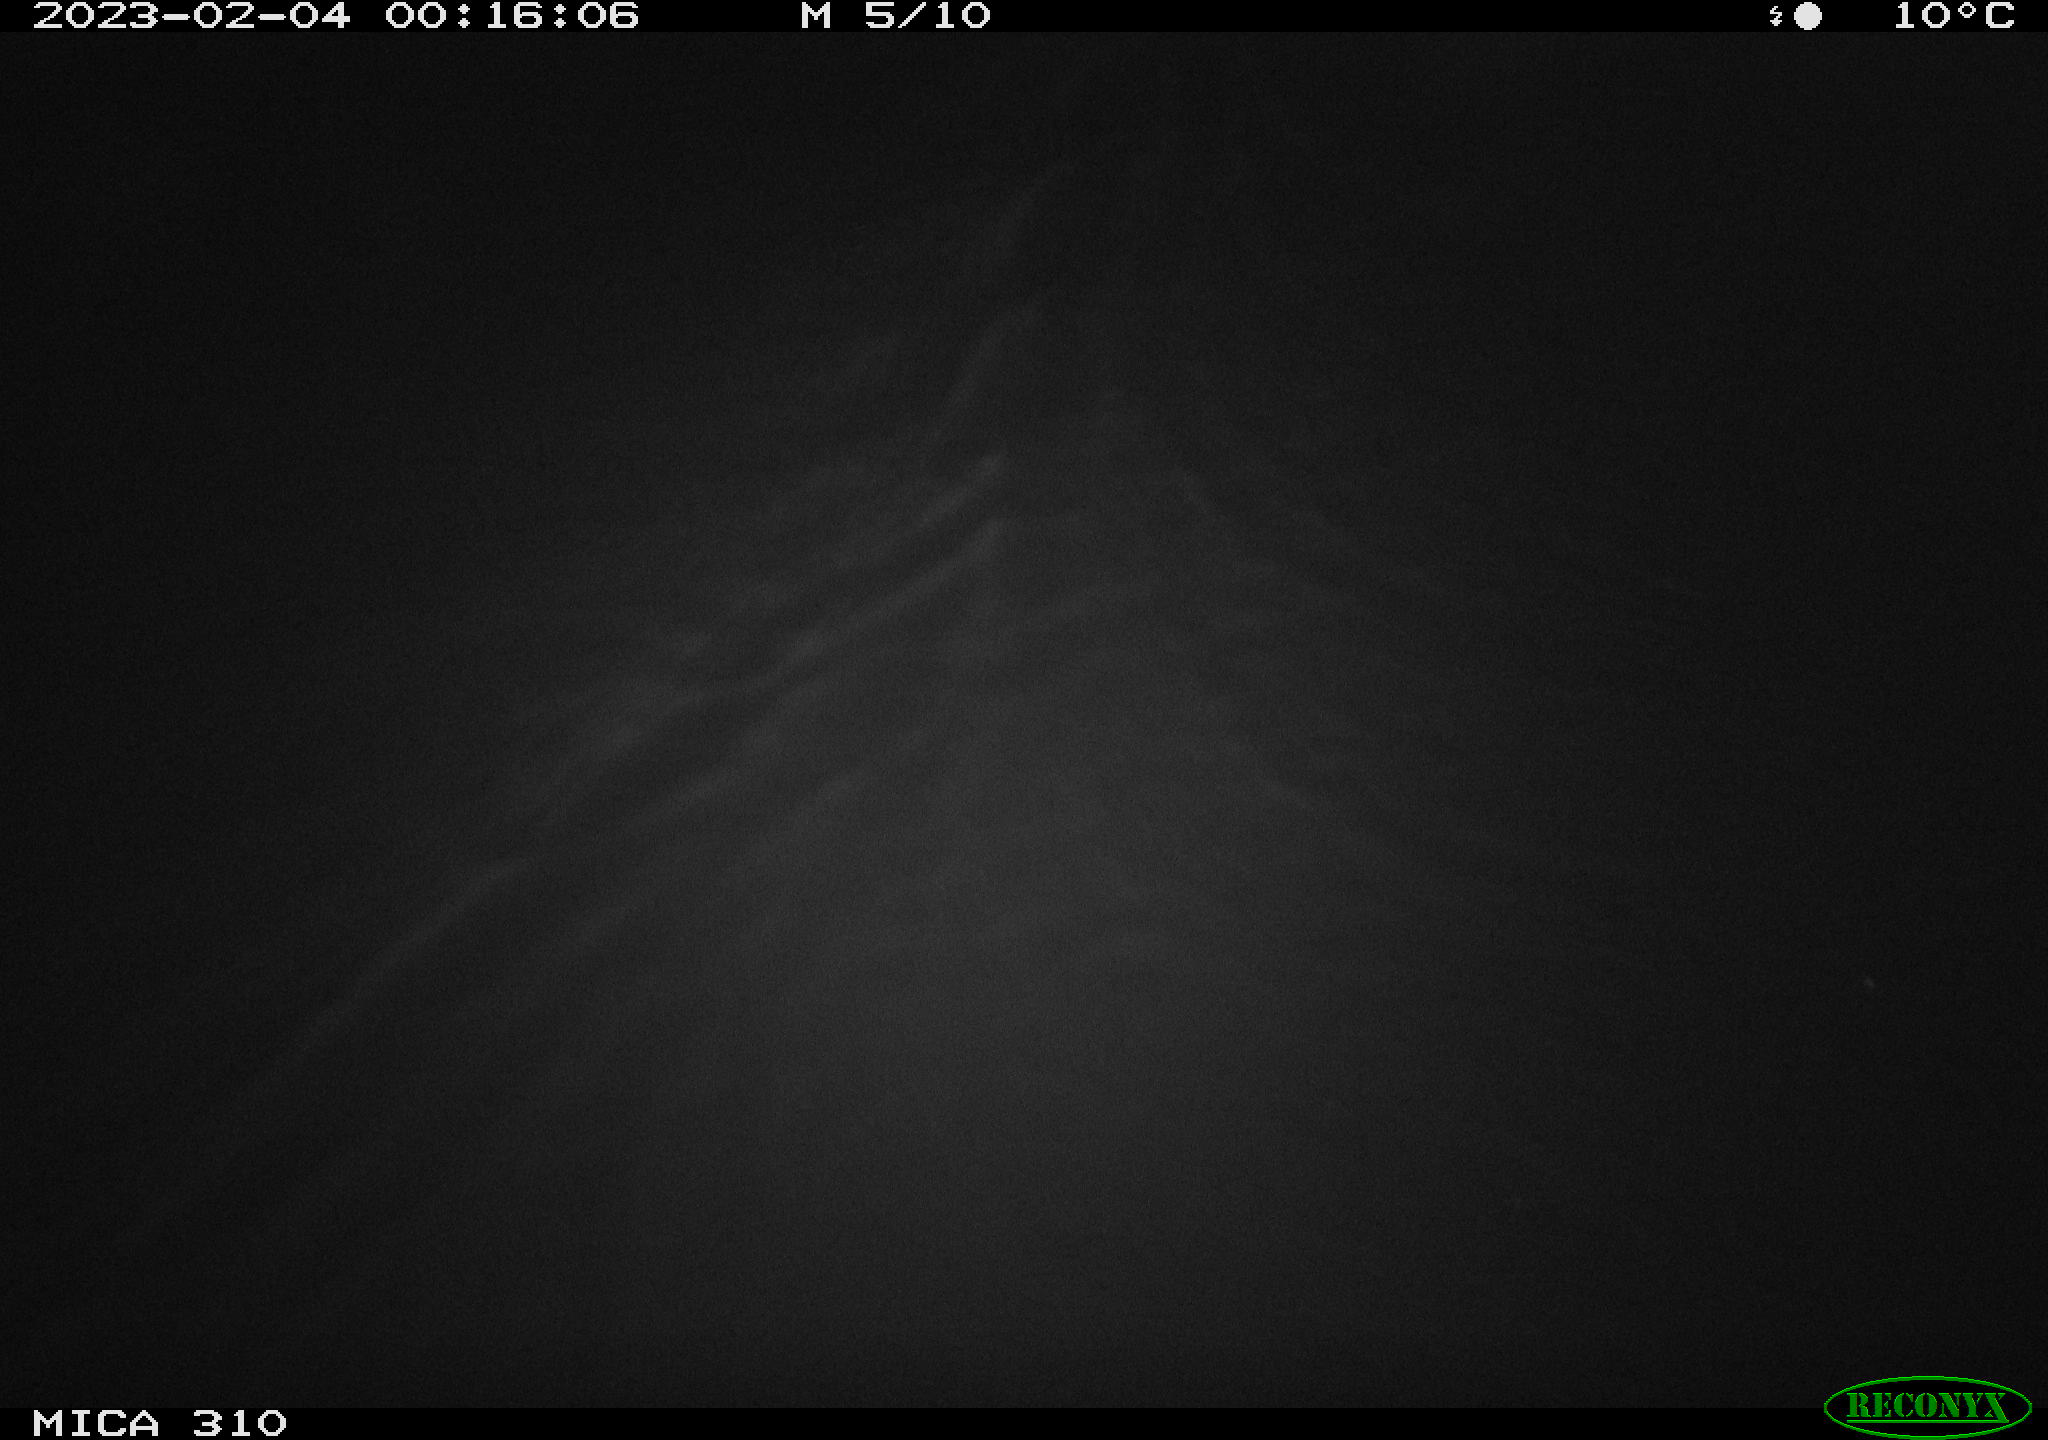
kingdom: Animalia
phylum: Chordata
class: Mammalia
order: Rodentia
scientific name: Rodentia
